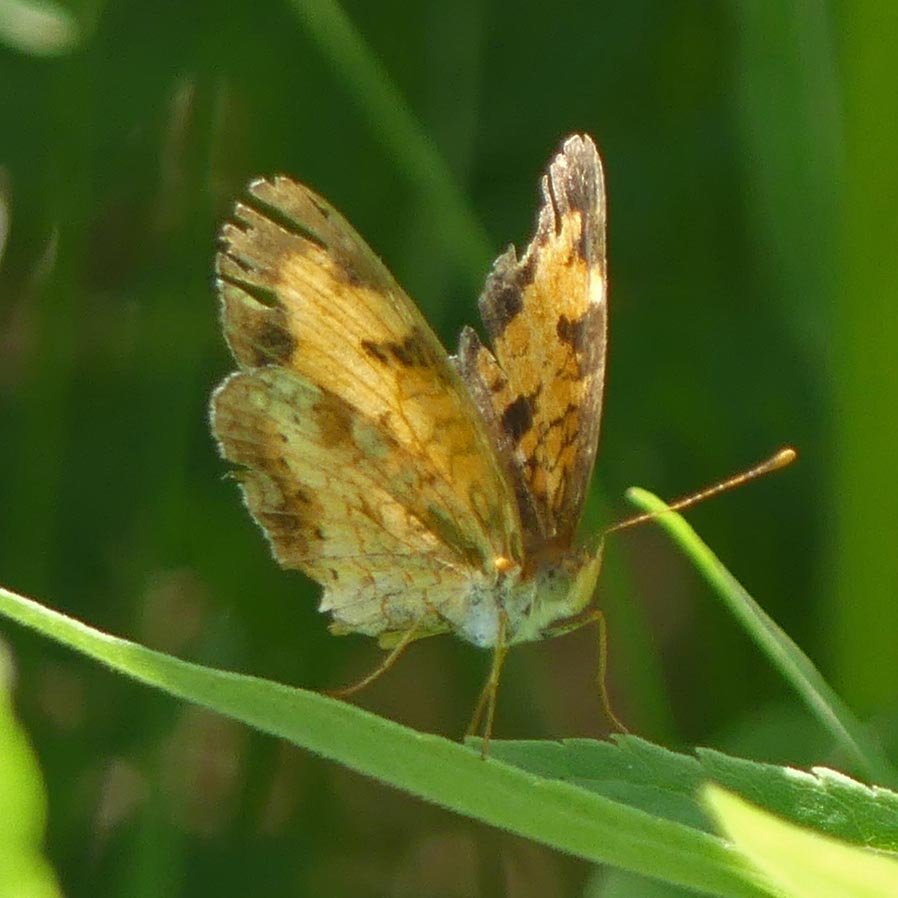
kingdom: Animalia
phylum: Arthropoda
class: Insecta
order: Lepidoptera
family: Nymphalidae
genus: Phyciodes
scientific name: Phyciodes tharos
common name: Northern Crescent
